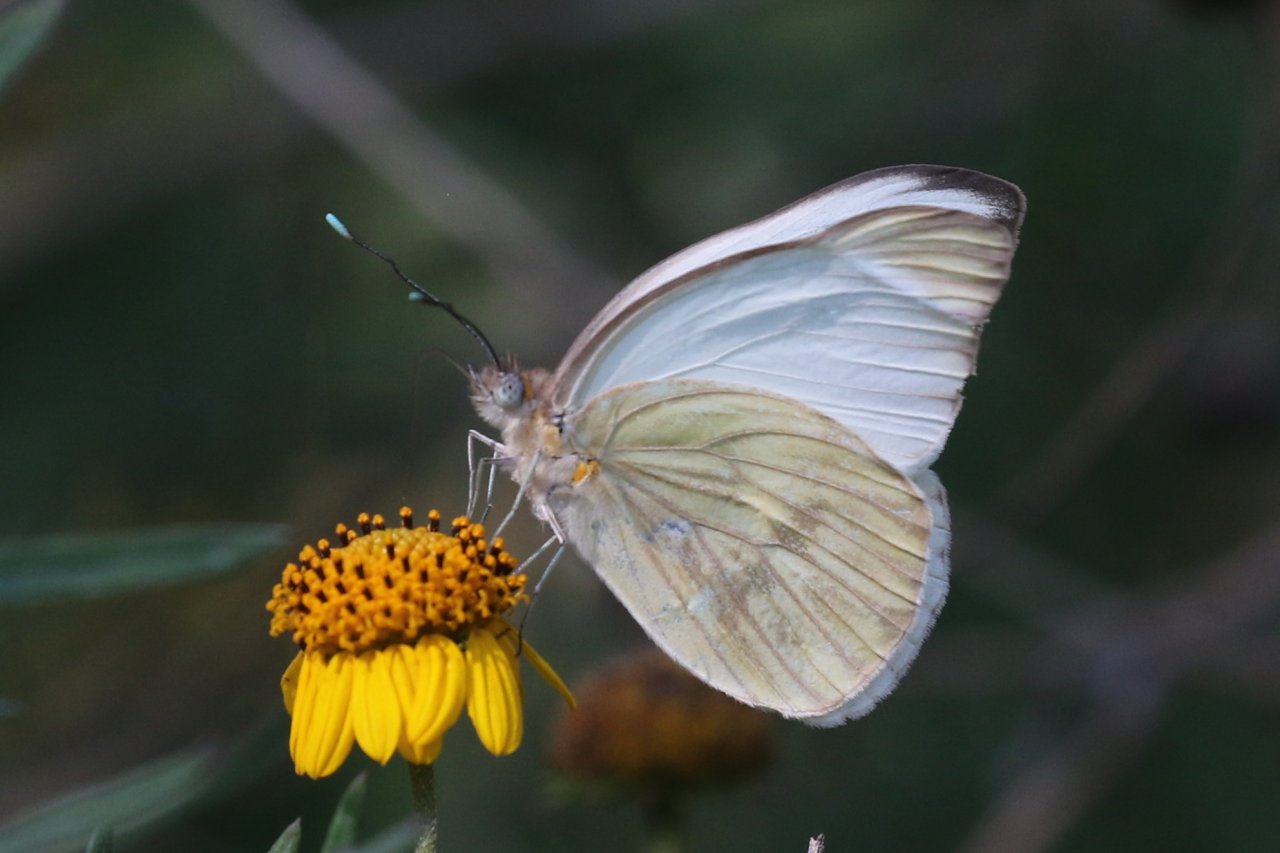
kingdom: Animalia
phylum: Arthropoda
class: Insecta
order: Lepidoptera
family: Pieridae
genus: Ascia
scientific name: Ascia monuste
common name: Great Southern White
